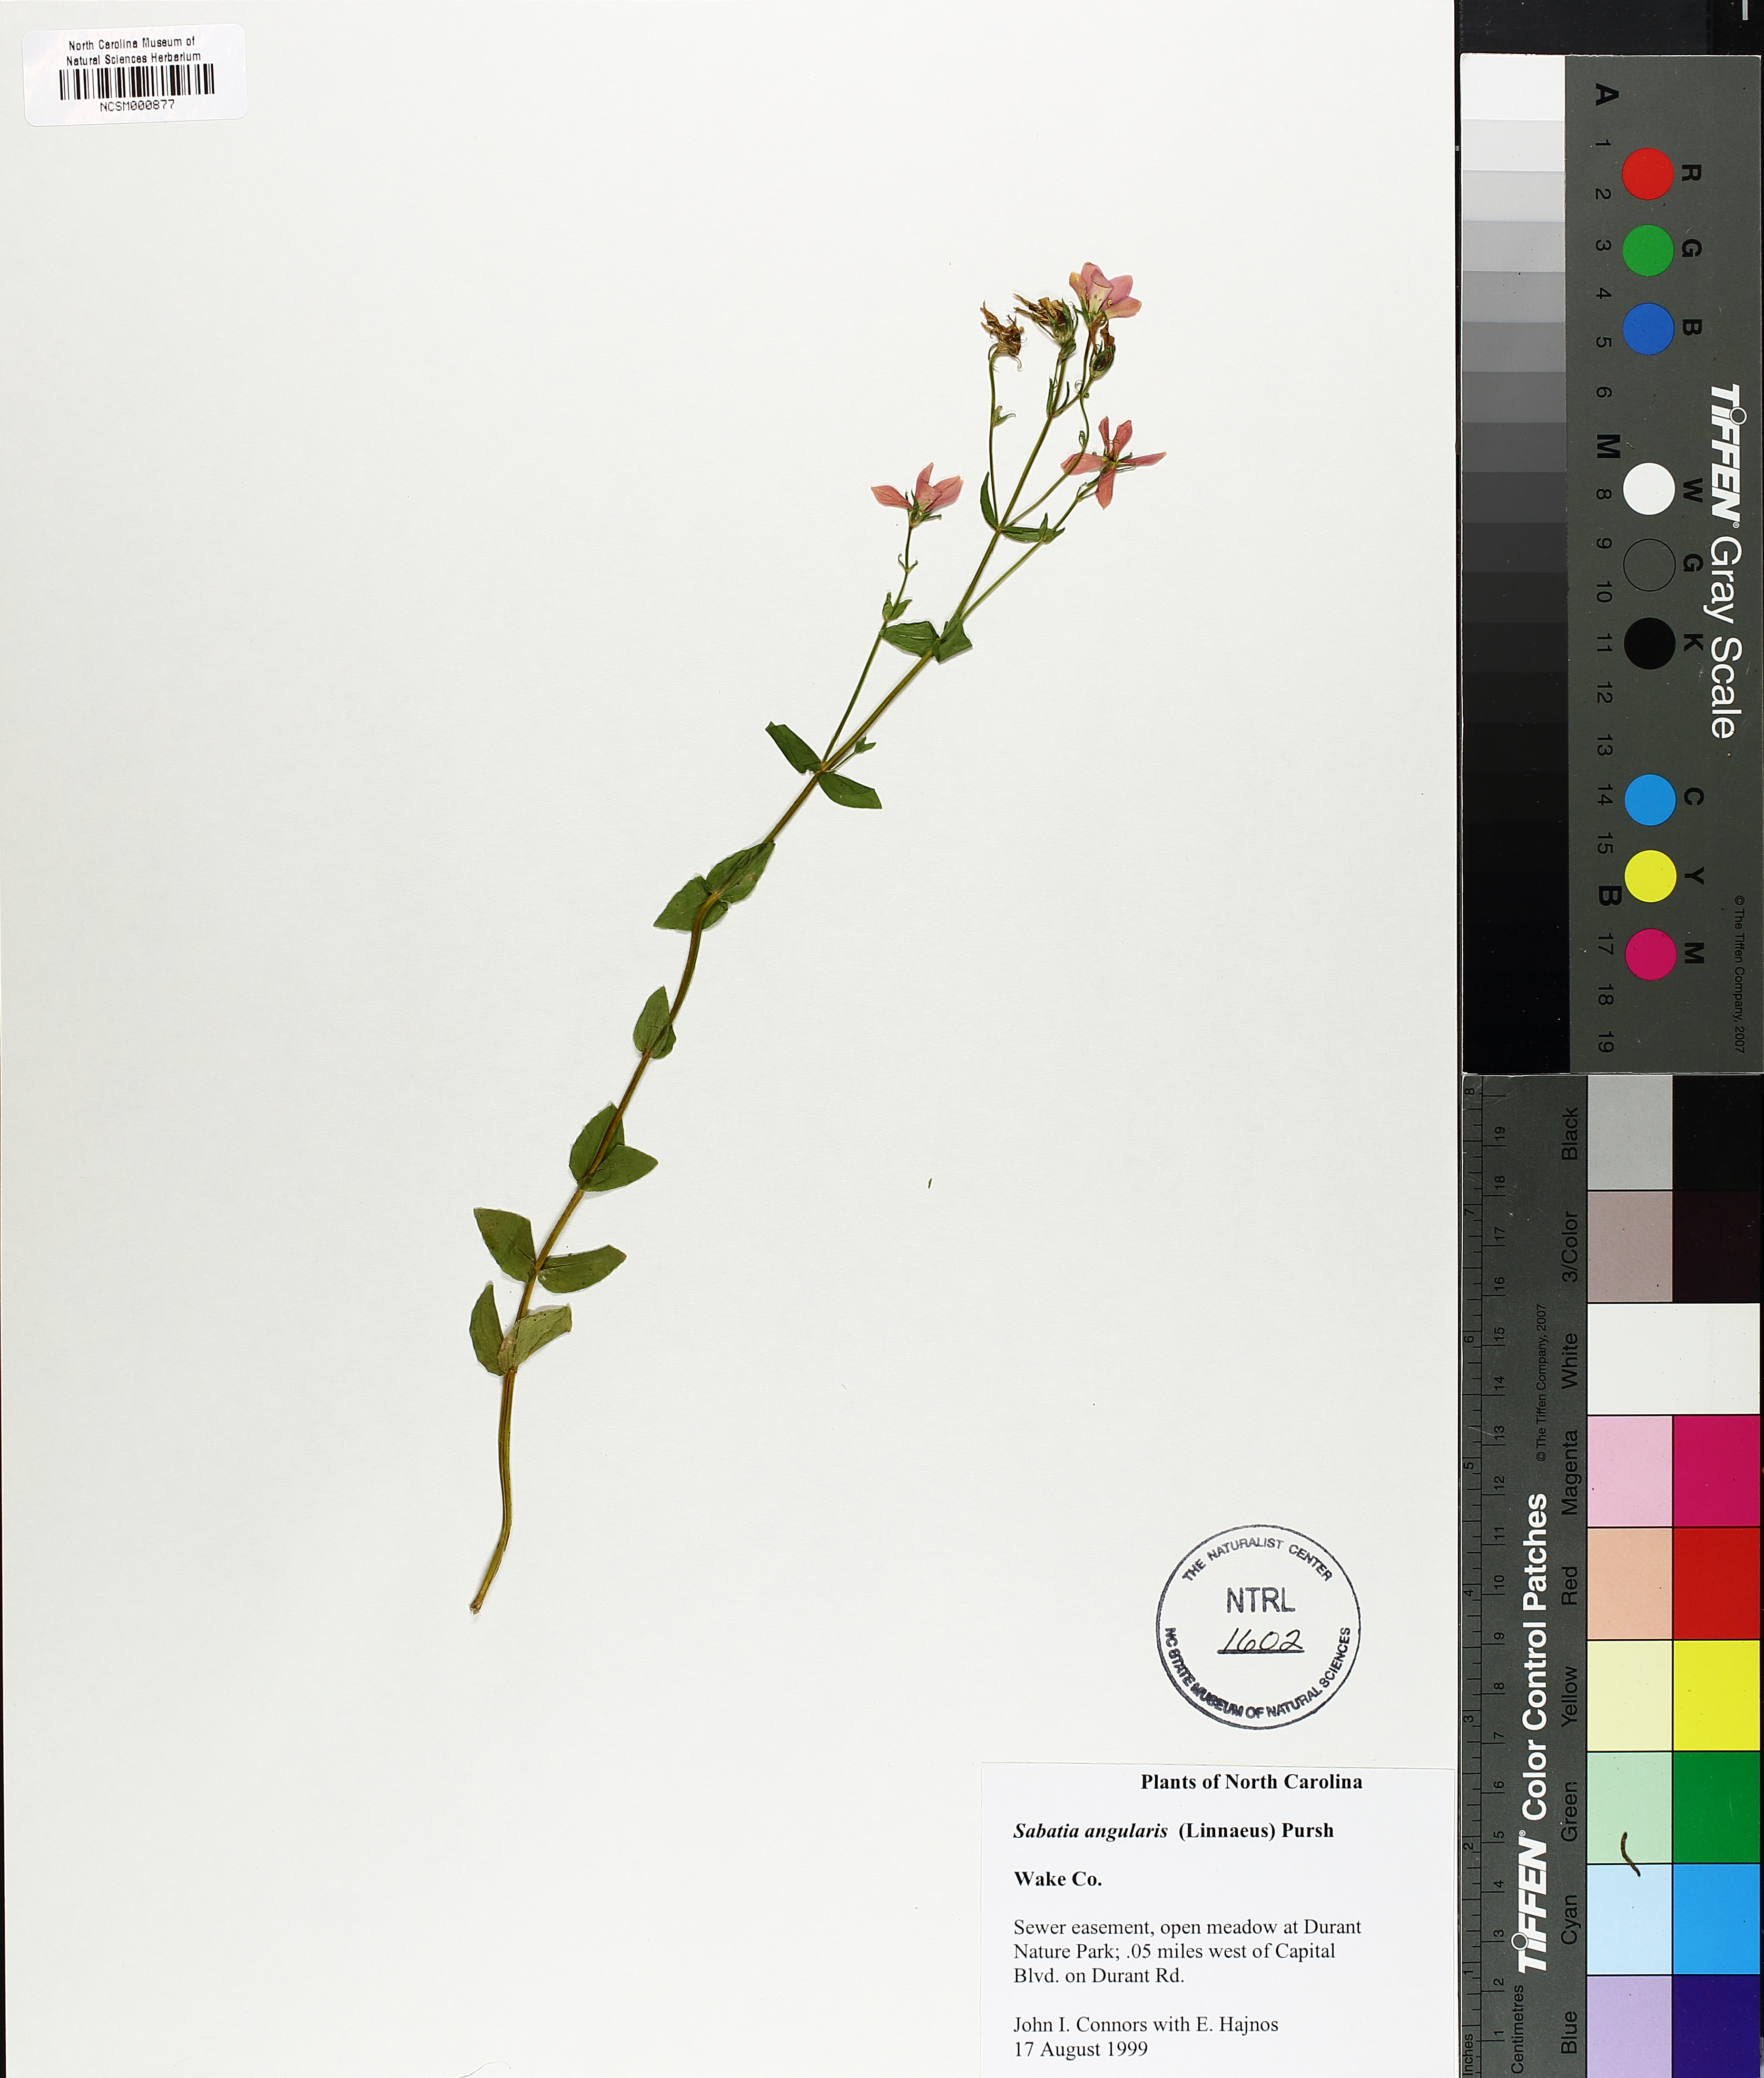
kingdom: Plantae
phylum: Tracheophyta
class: Magnoliopsida
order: Gentianales
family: Gentianaceae
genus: Sabatia
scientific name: Sabatia angularis
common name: Rose-pink
